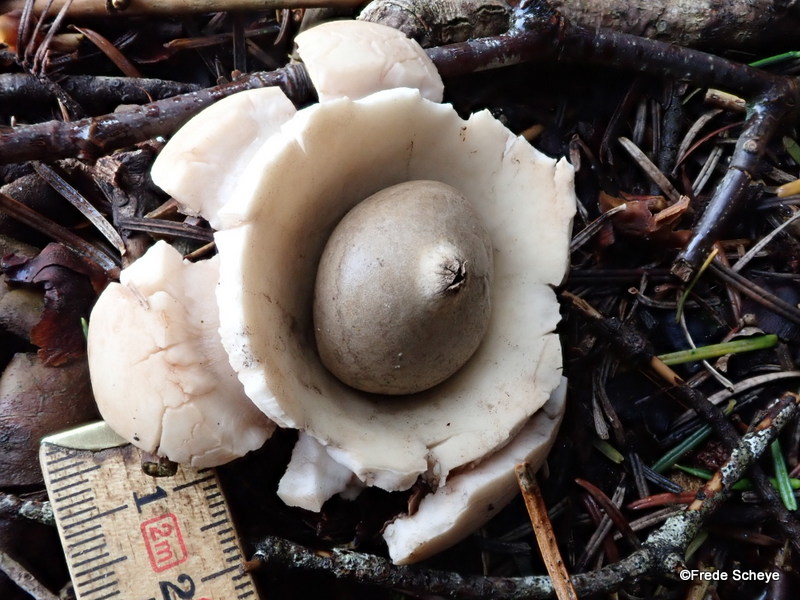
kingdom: Fungi
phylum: Basidiomycota
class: Agaricomycetes
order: Geastrales
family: Geastraceae
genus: Geastrum
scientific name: Geastrum michelianum
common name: kødet stjernebold
